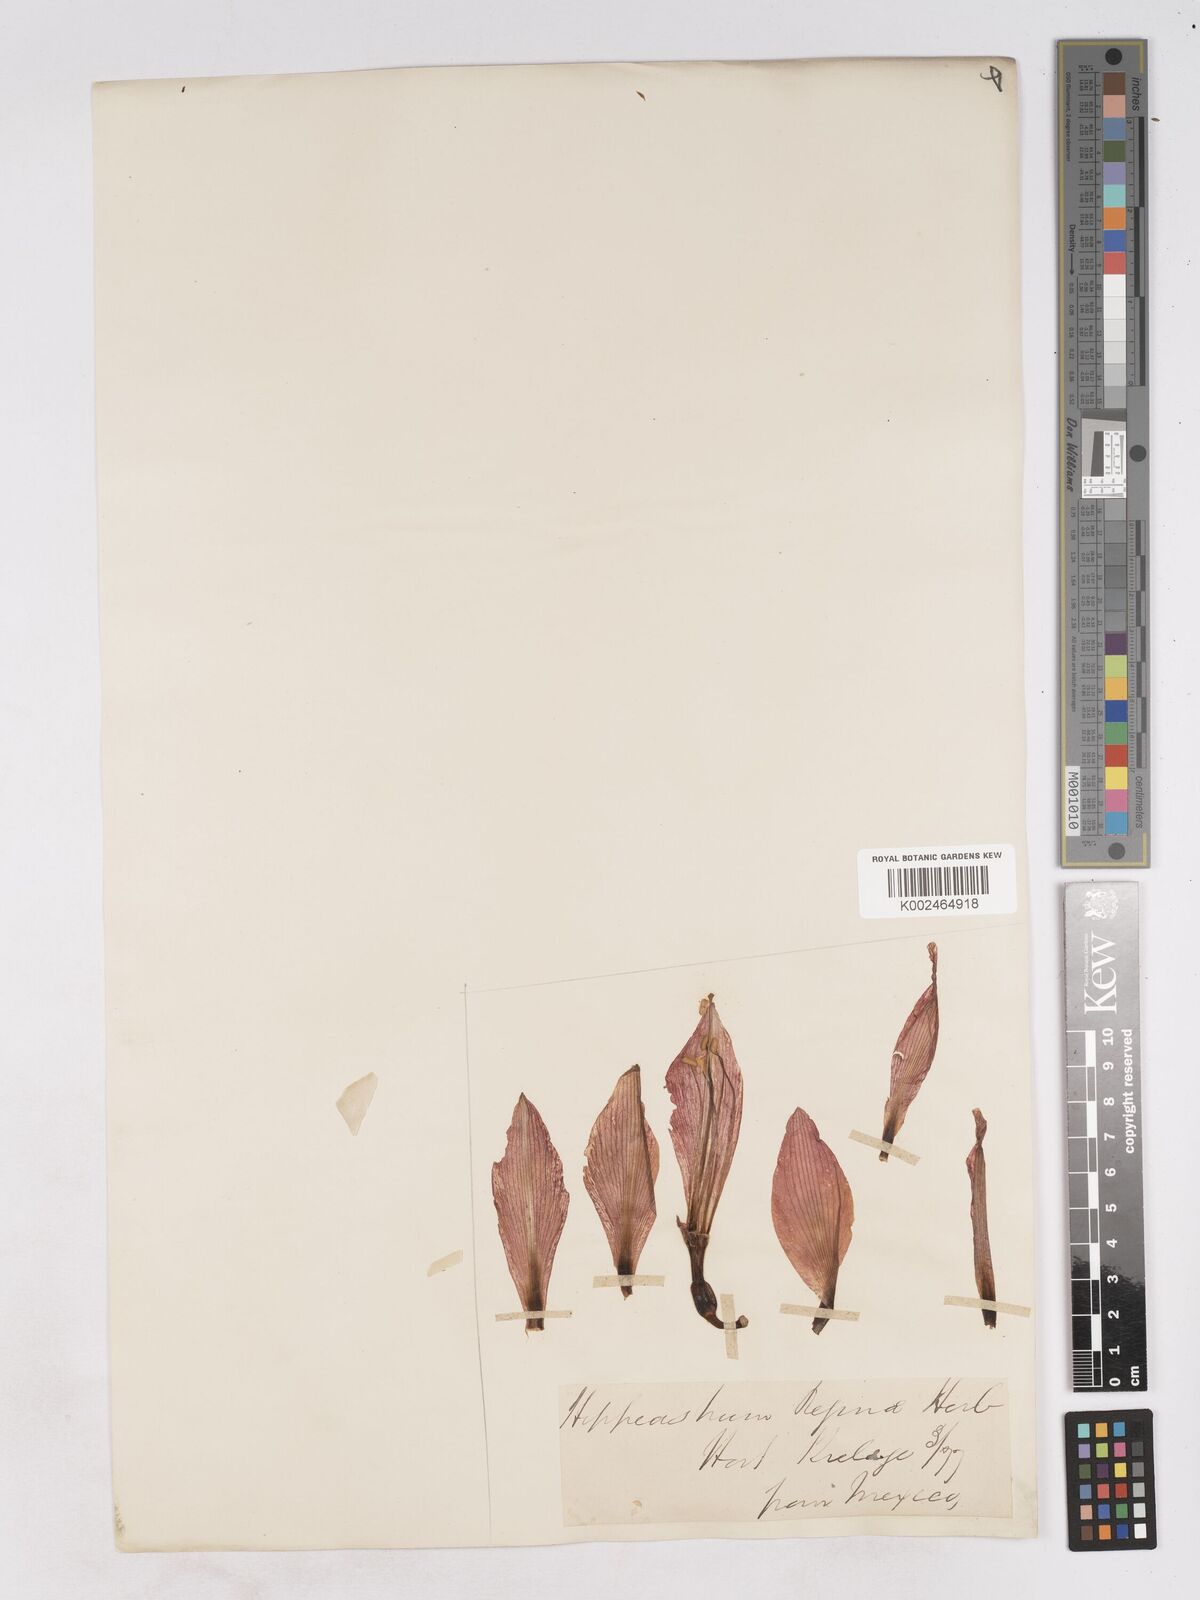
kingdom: Plantae
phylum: Tracheophyta
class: Liliopsida
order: Asparagales
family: Amaryllidaceae
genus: Hippeastrum
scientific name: Hippeastrum reginae
